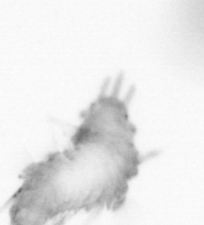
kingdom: Animalia
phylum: Annelida
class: Polychaeta
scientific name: Polychaeta
